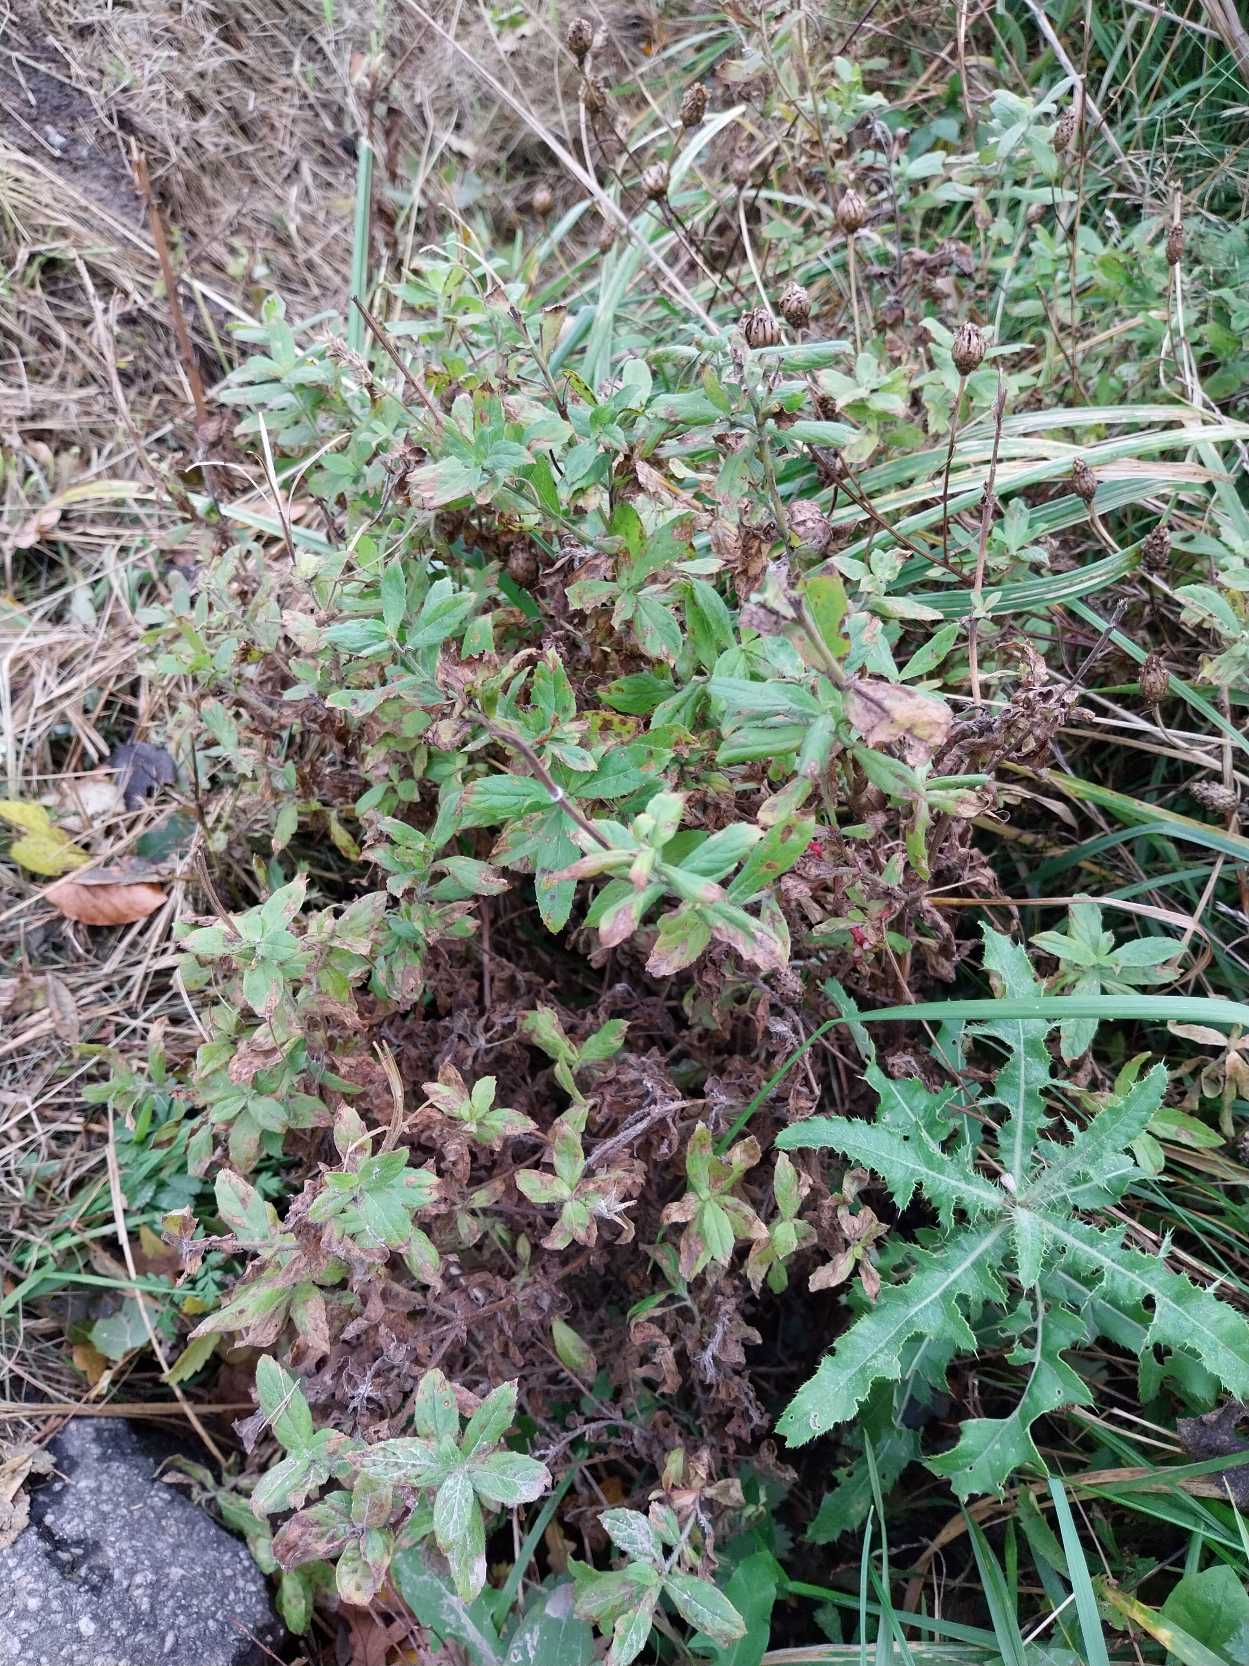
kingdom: Plantae
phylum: Tracheophyta
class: Magnoliopsida
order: Myrtales
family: Onagraceae
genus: Epilobium
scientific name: Epilobium hirsutum
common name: Lådden dueurt
